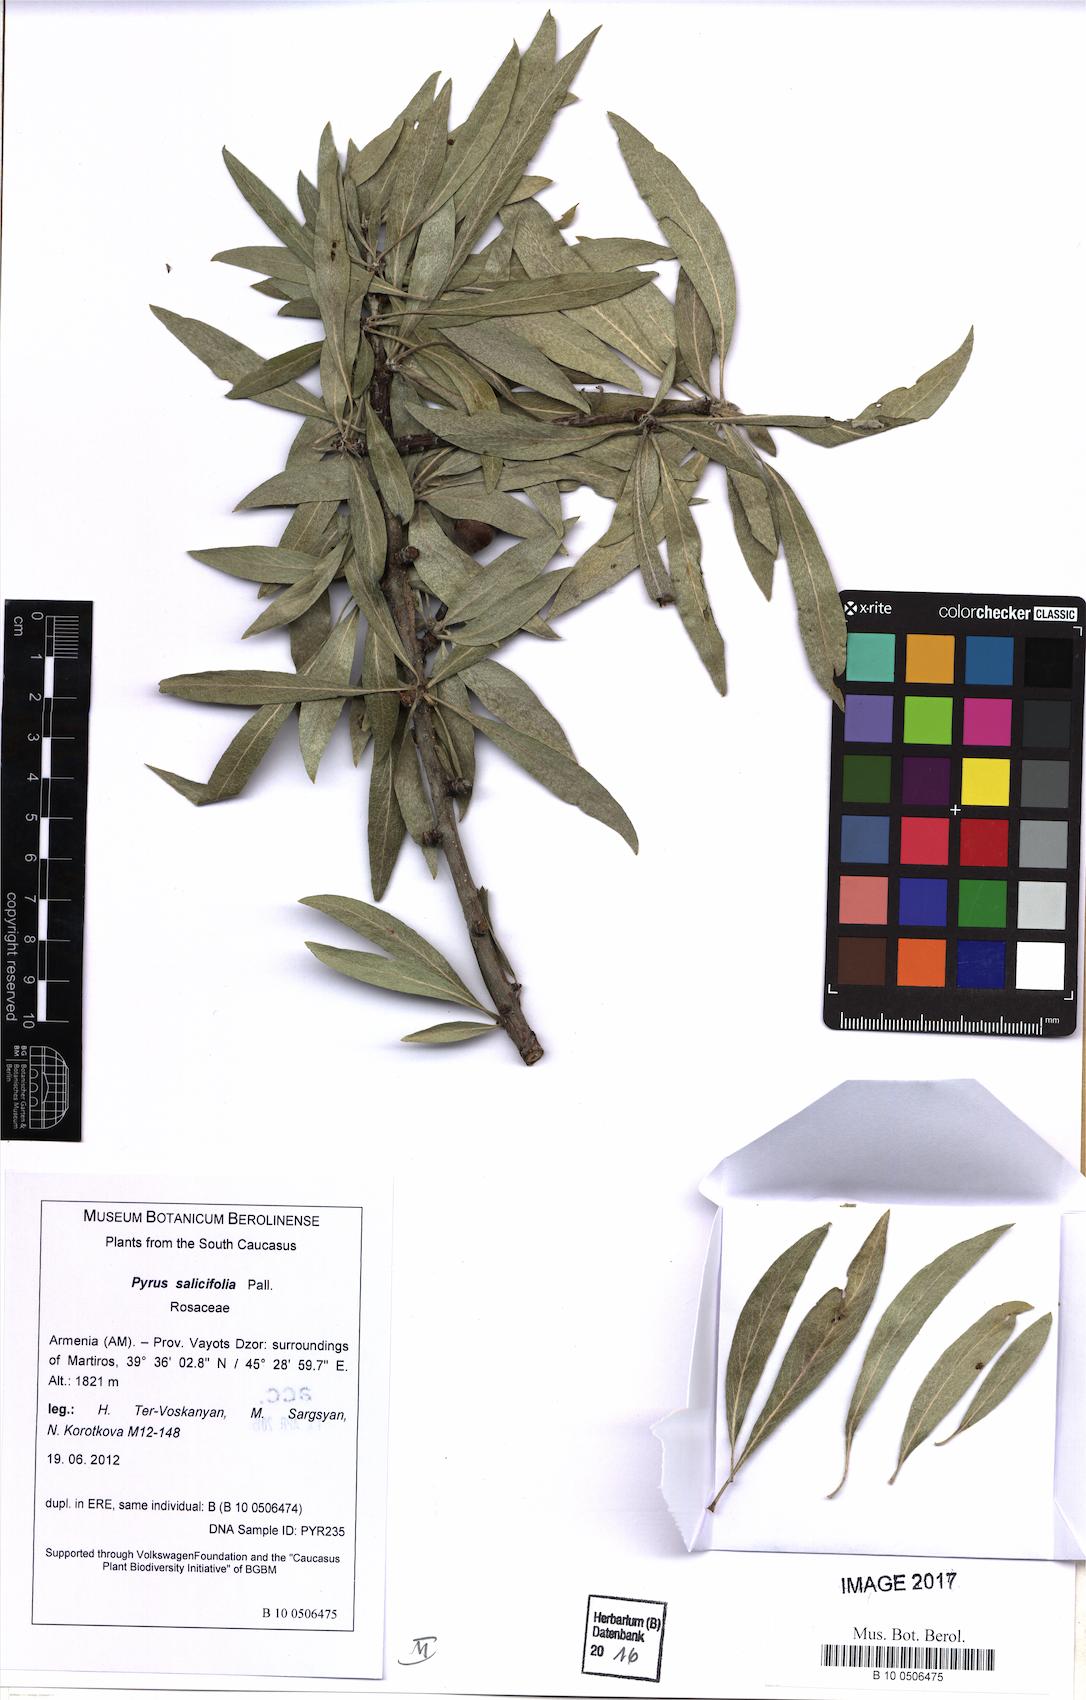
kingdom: Plantae
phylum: Tracheophyta
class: Magnoliopsida
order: Rosales
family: Rosaceae
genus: Pyrus
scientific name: Pyrus salicifolia
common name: Willow-leaved pear
